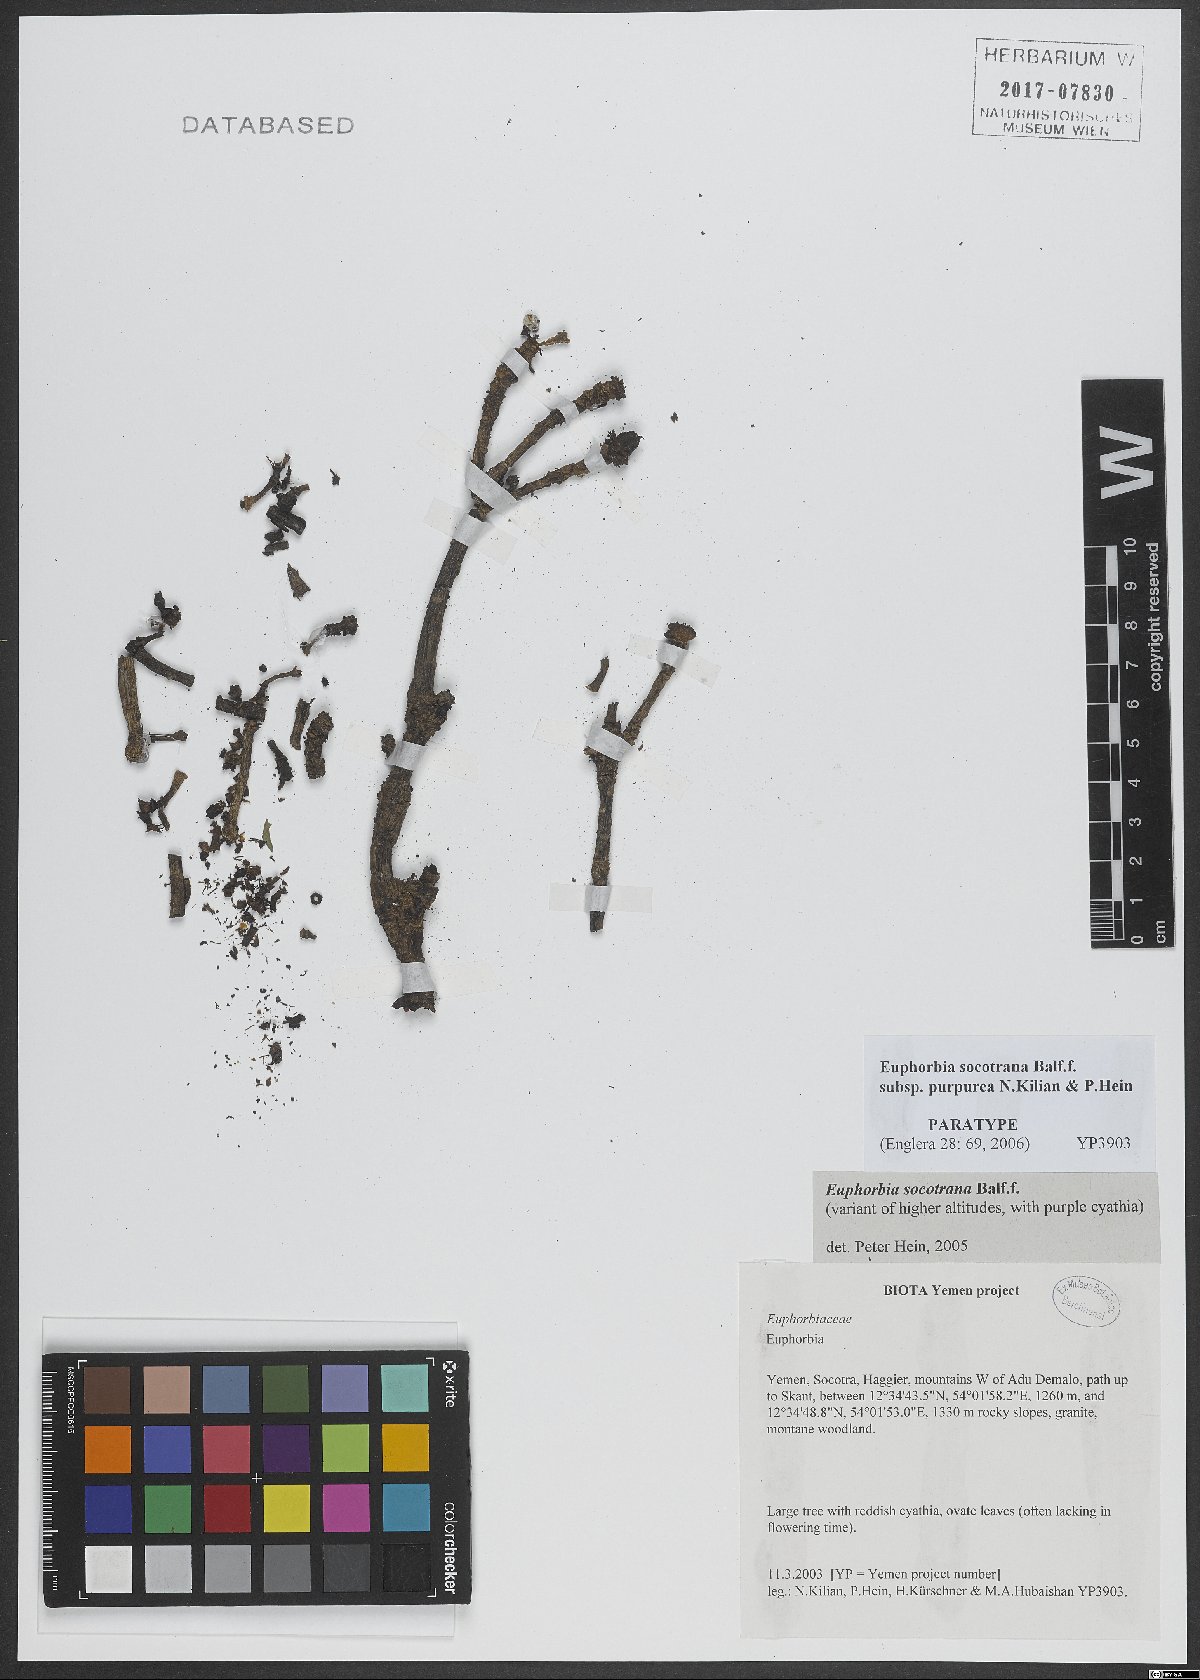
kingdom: Plantae
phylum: Tracheophyta
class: Magnoliopsida
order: Malpighiales
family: Euphorbiaceae
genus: Euphorbia
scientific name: Euphorbia socotrana
